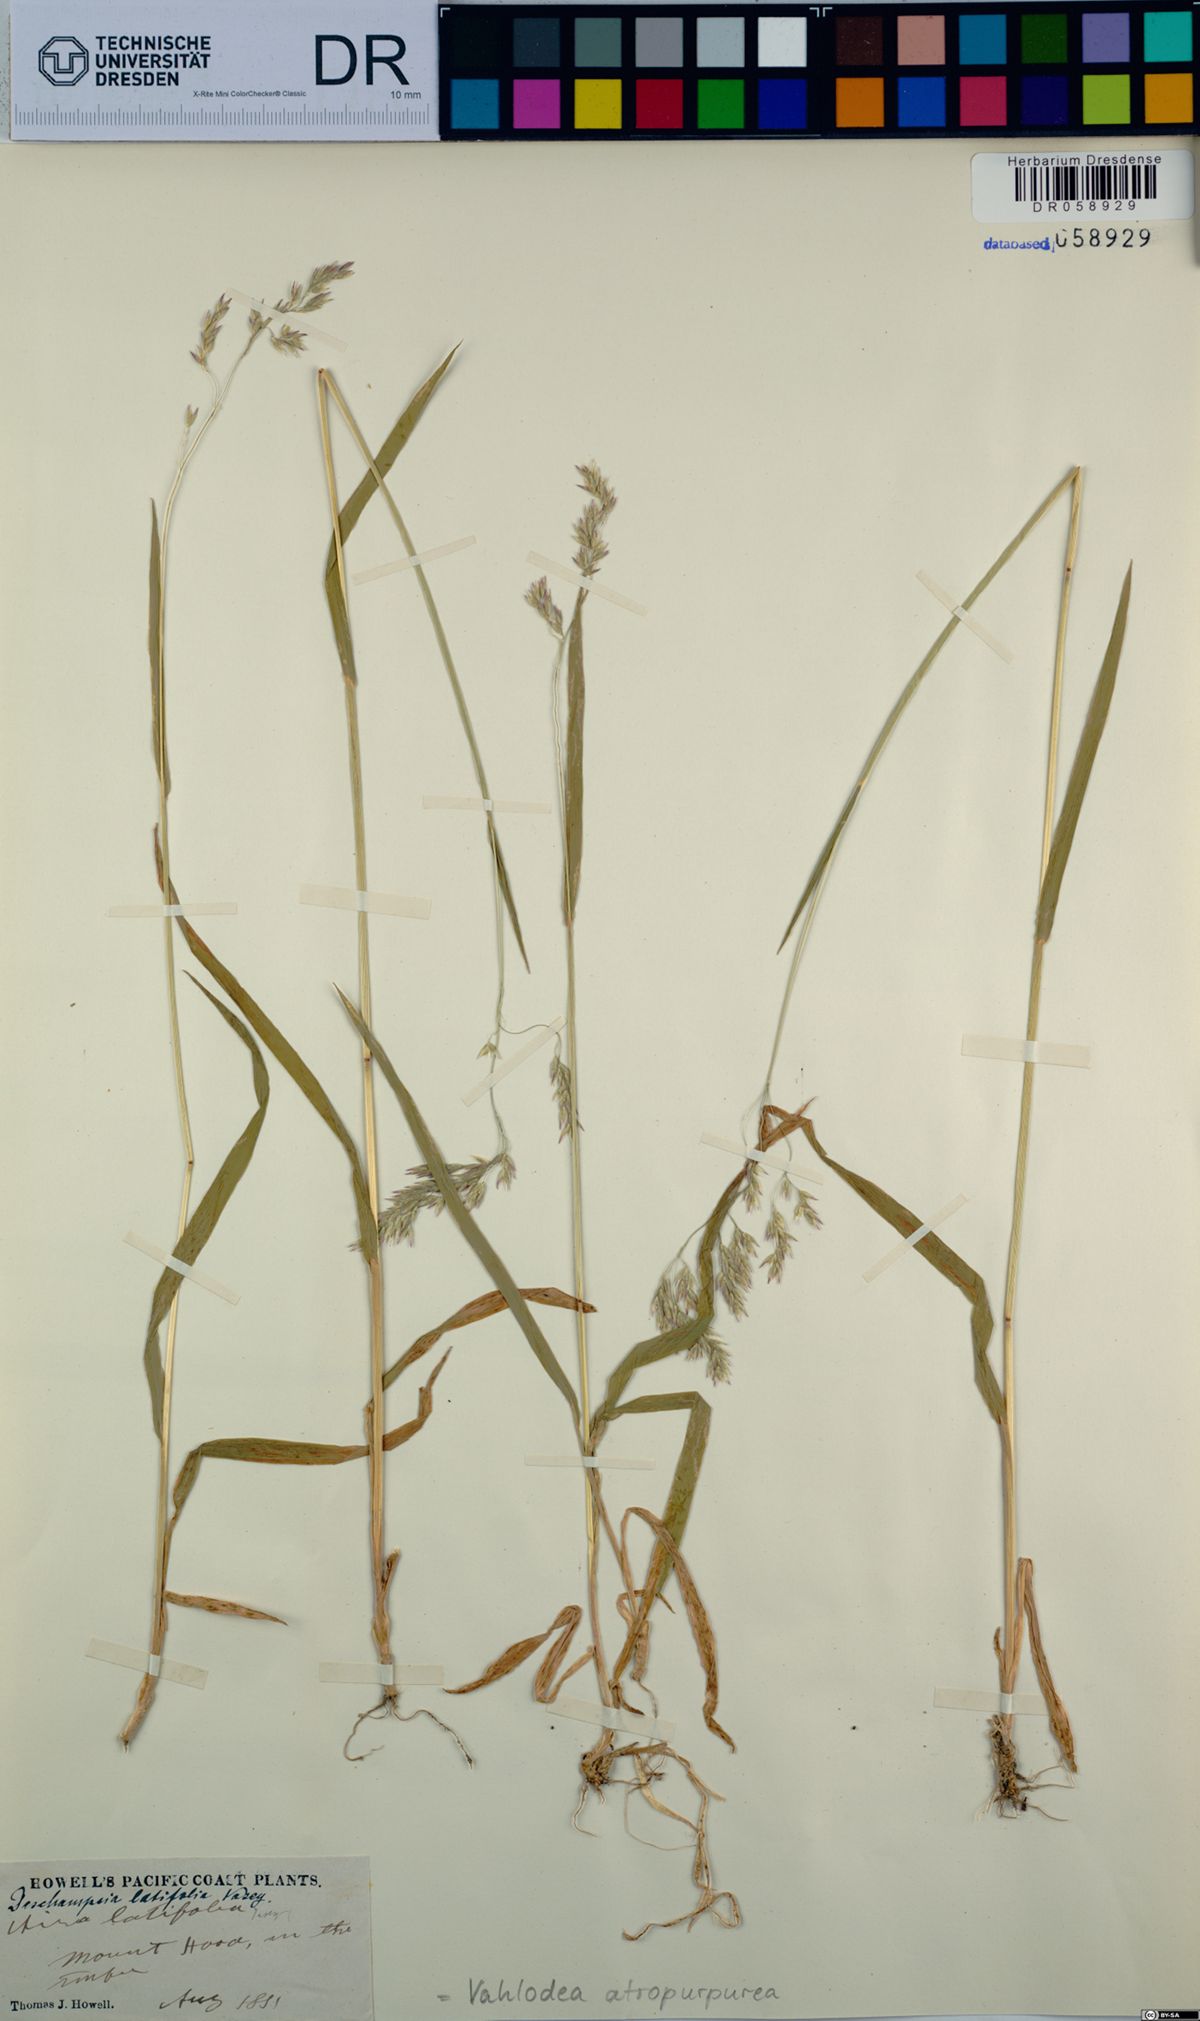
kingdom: Plantae
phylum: Tracheophyta
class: Liliopsida
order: Poales
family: Poaceae
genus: Vahlodea
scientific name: Vahlodea atropurpurea
